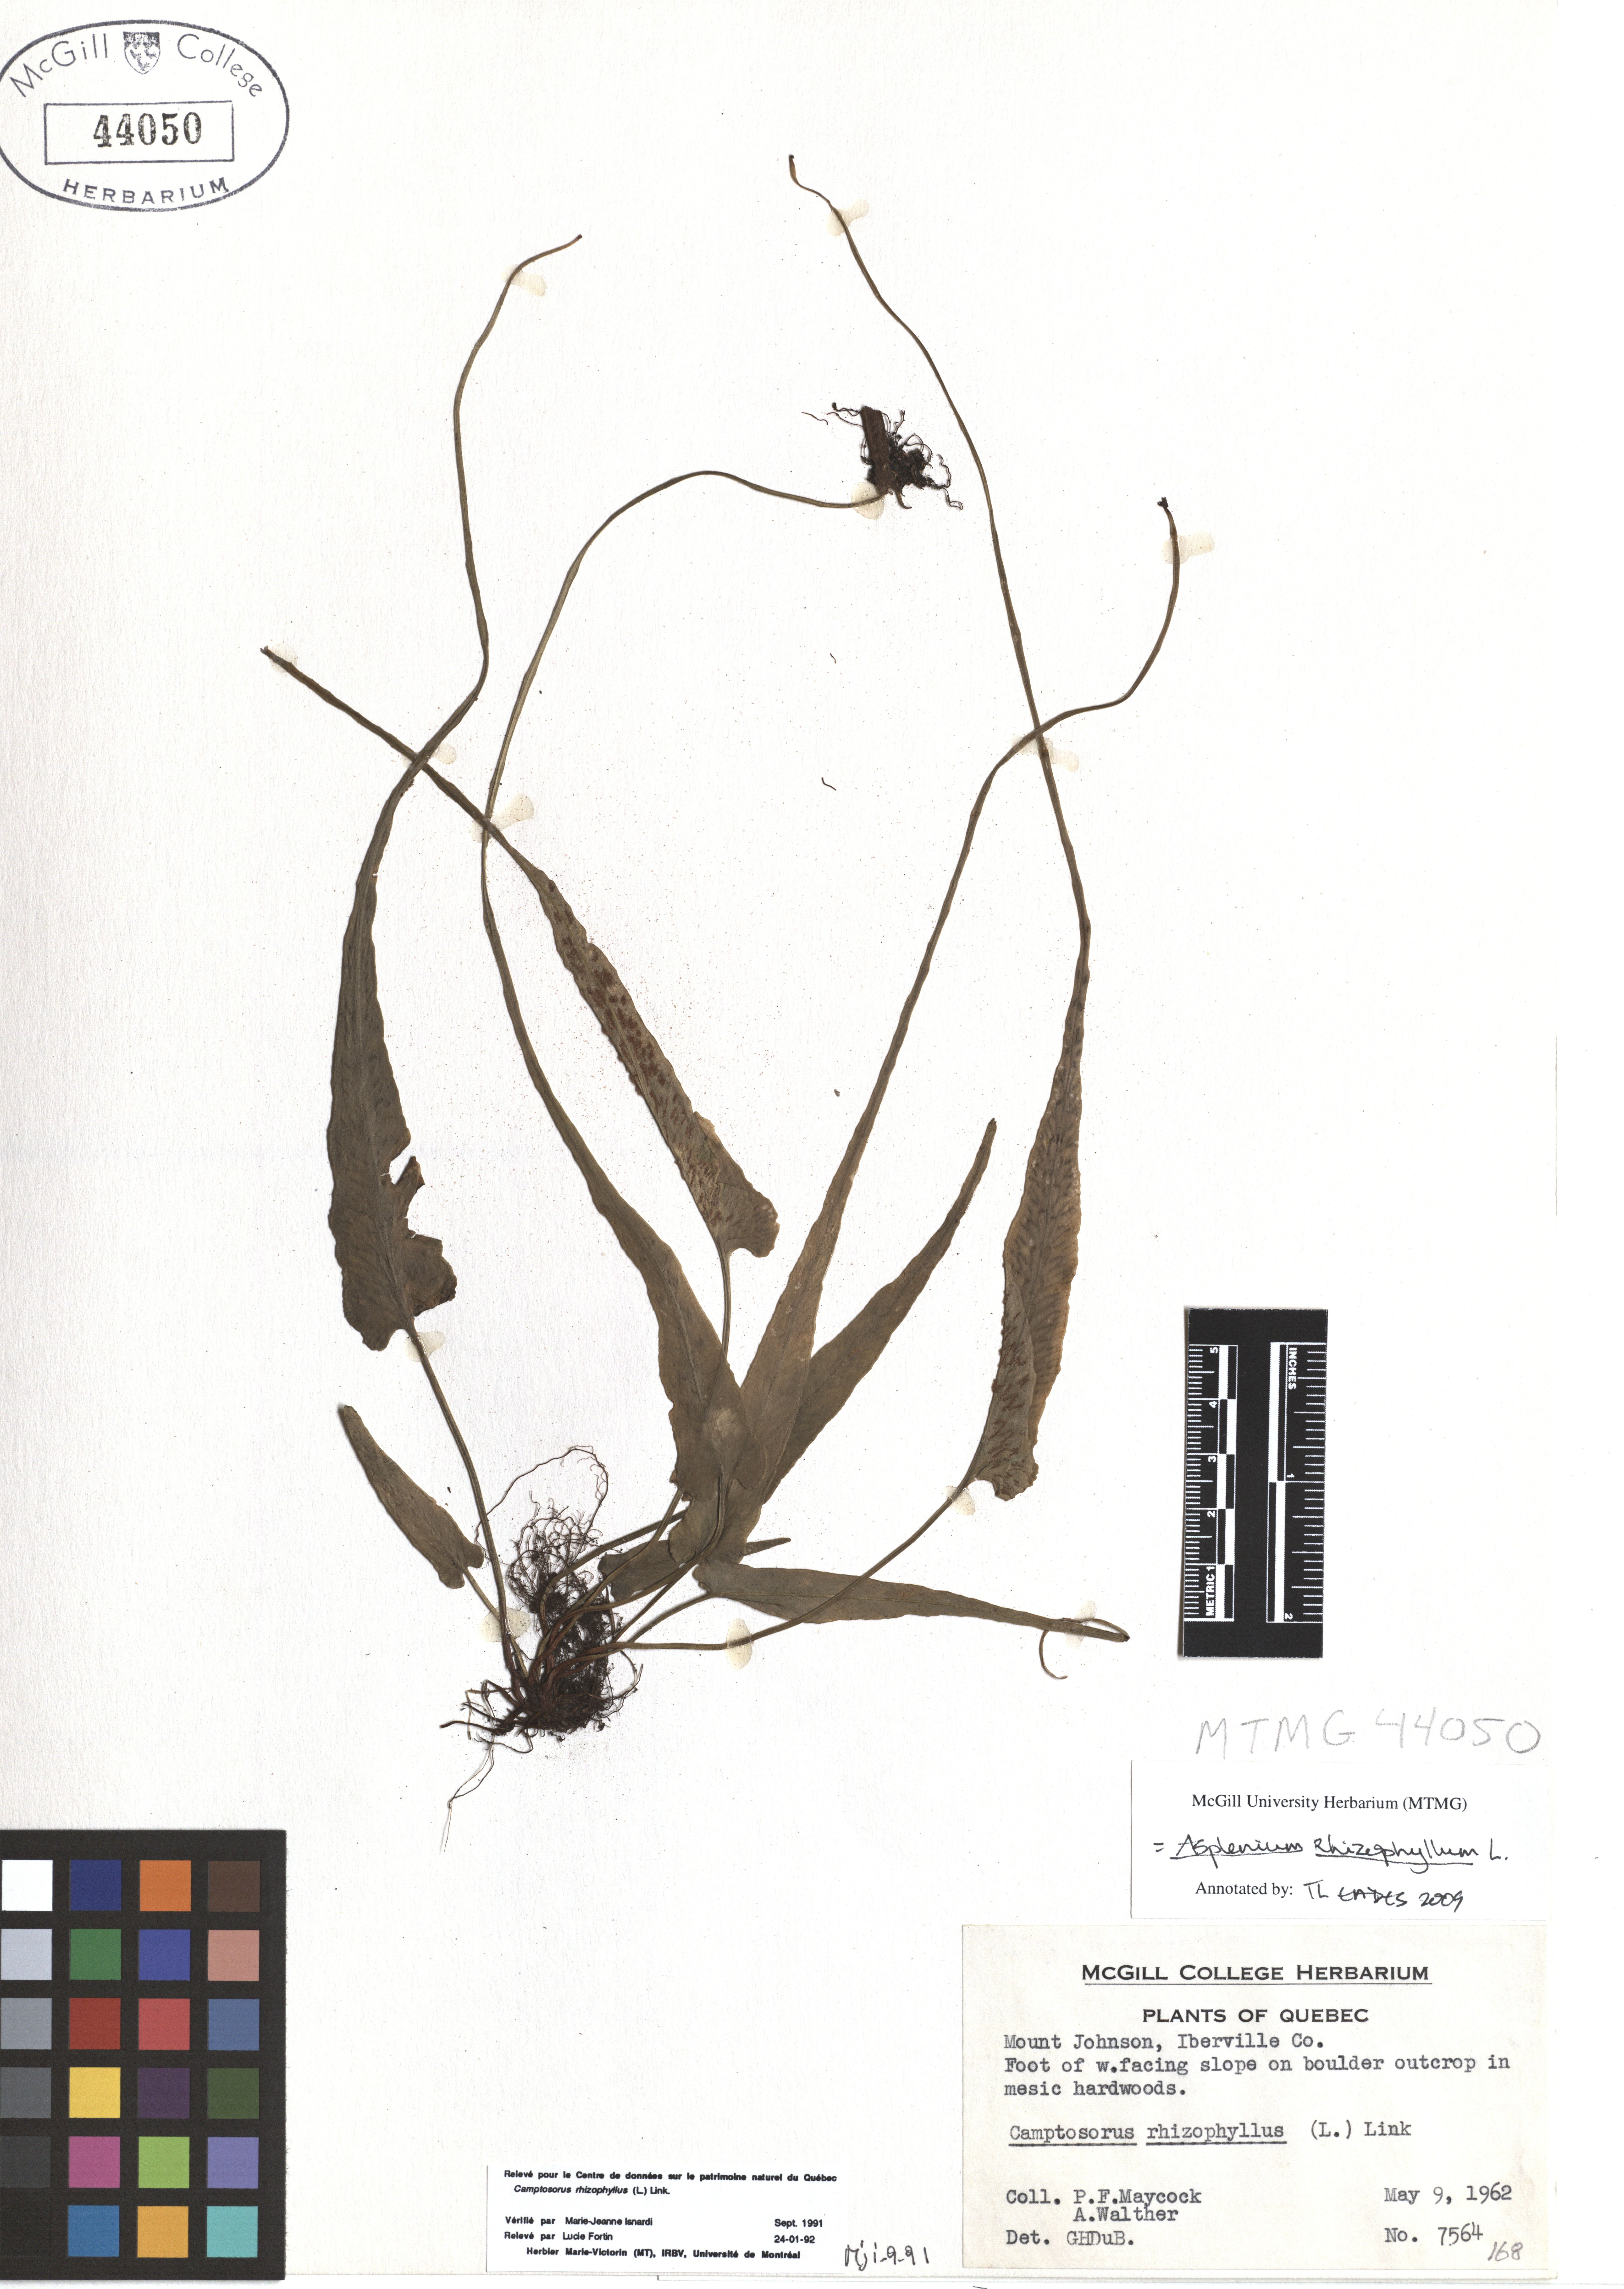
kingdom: Plantae
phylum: Tracheophyta
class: Polypodiopsida
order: Polypodiales
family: Aspleniaceae
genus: Asplenium
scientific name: Asplenium radicans
